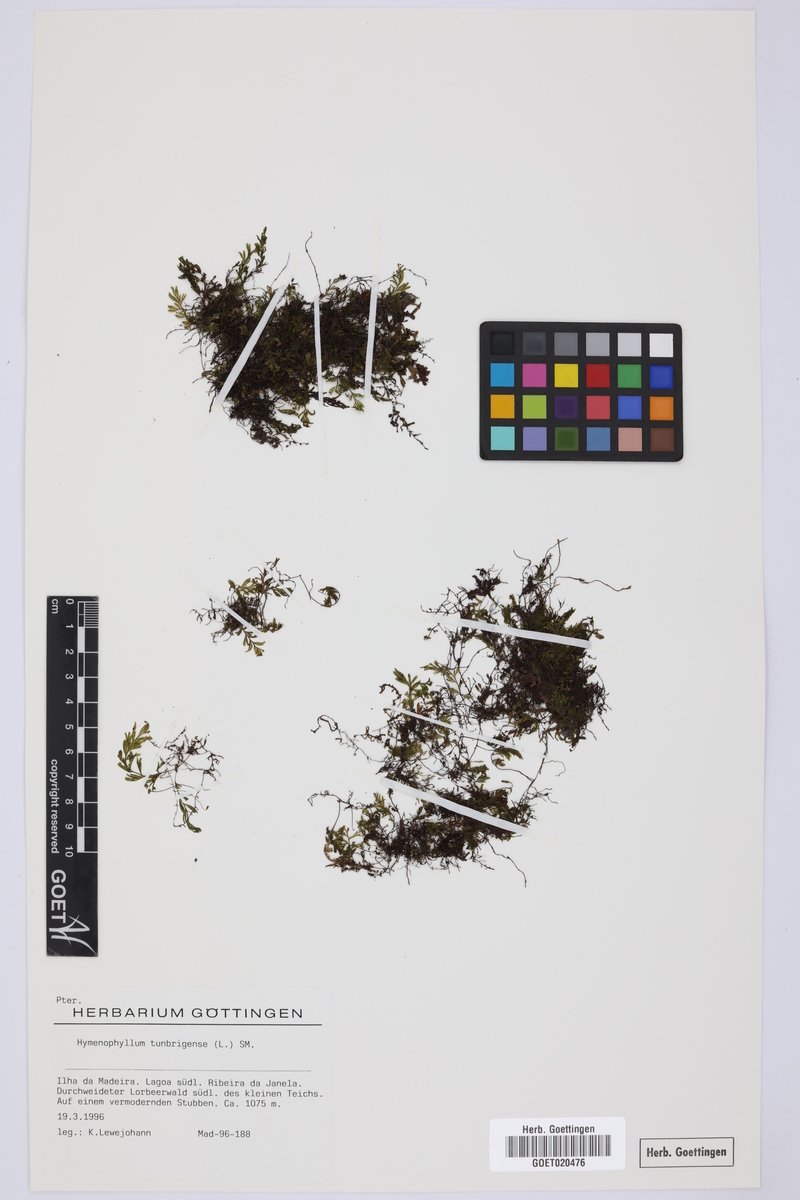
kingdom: Plantae
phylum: Tracheophyta
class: Polypodiopsida
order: Hymenophyllales
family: Hymenophyllaceae
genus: Hymenophyllum
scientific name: Hymenophyllum tunbrigense
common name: Tunbridge filmy fern
